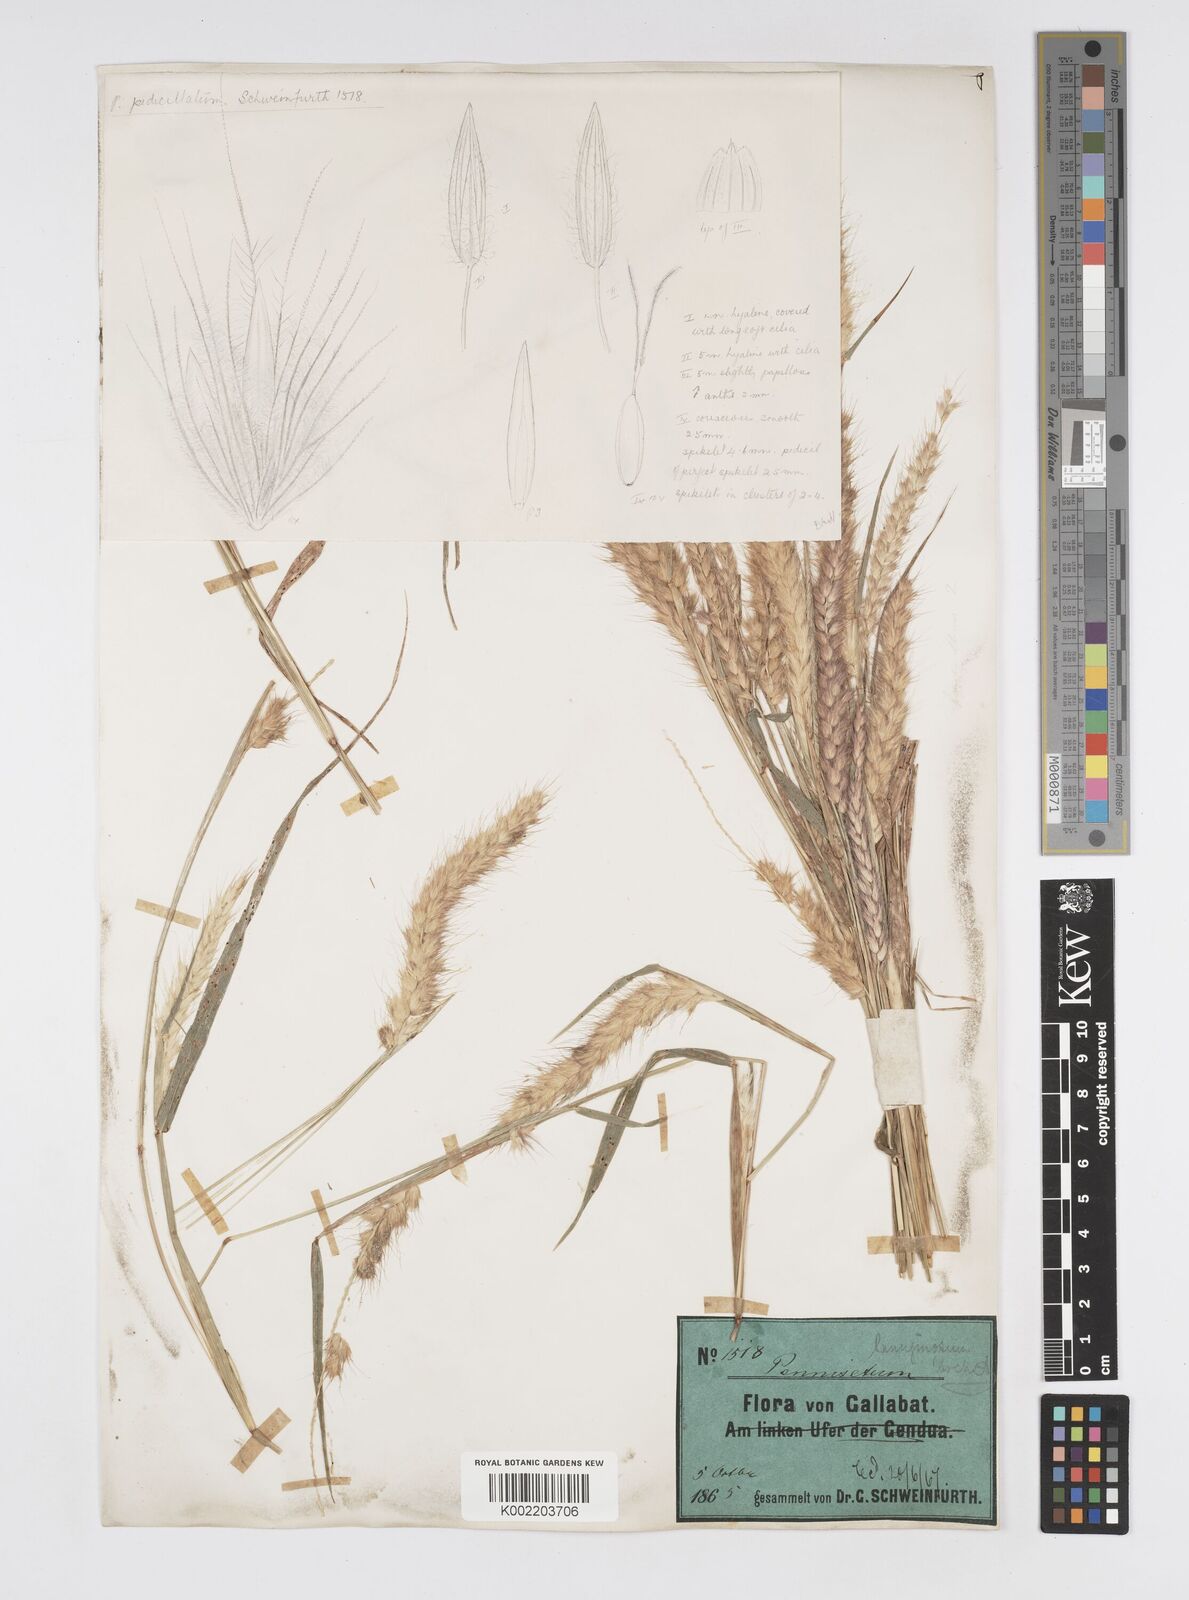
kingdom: Plantae
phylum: Tracheophyta
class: Liliopsida
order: Poales
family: Poaceae
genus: Cenchrus
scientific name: Cenchrus pedicellatus
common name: Hairy fountain grass
